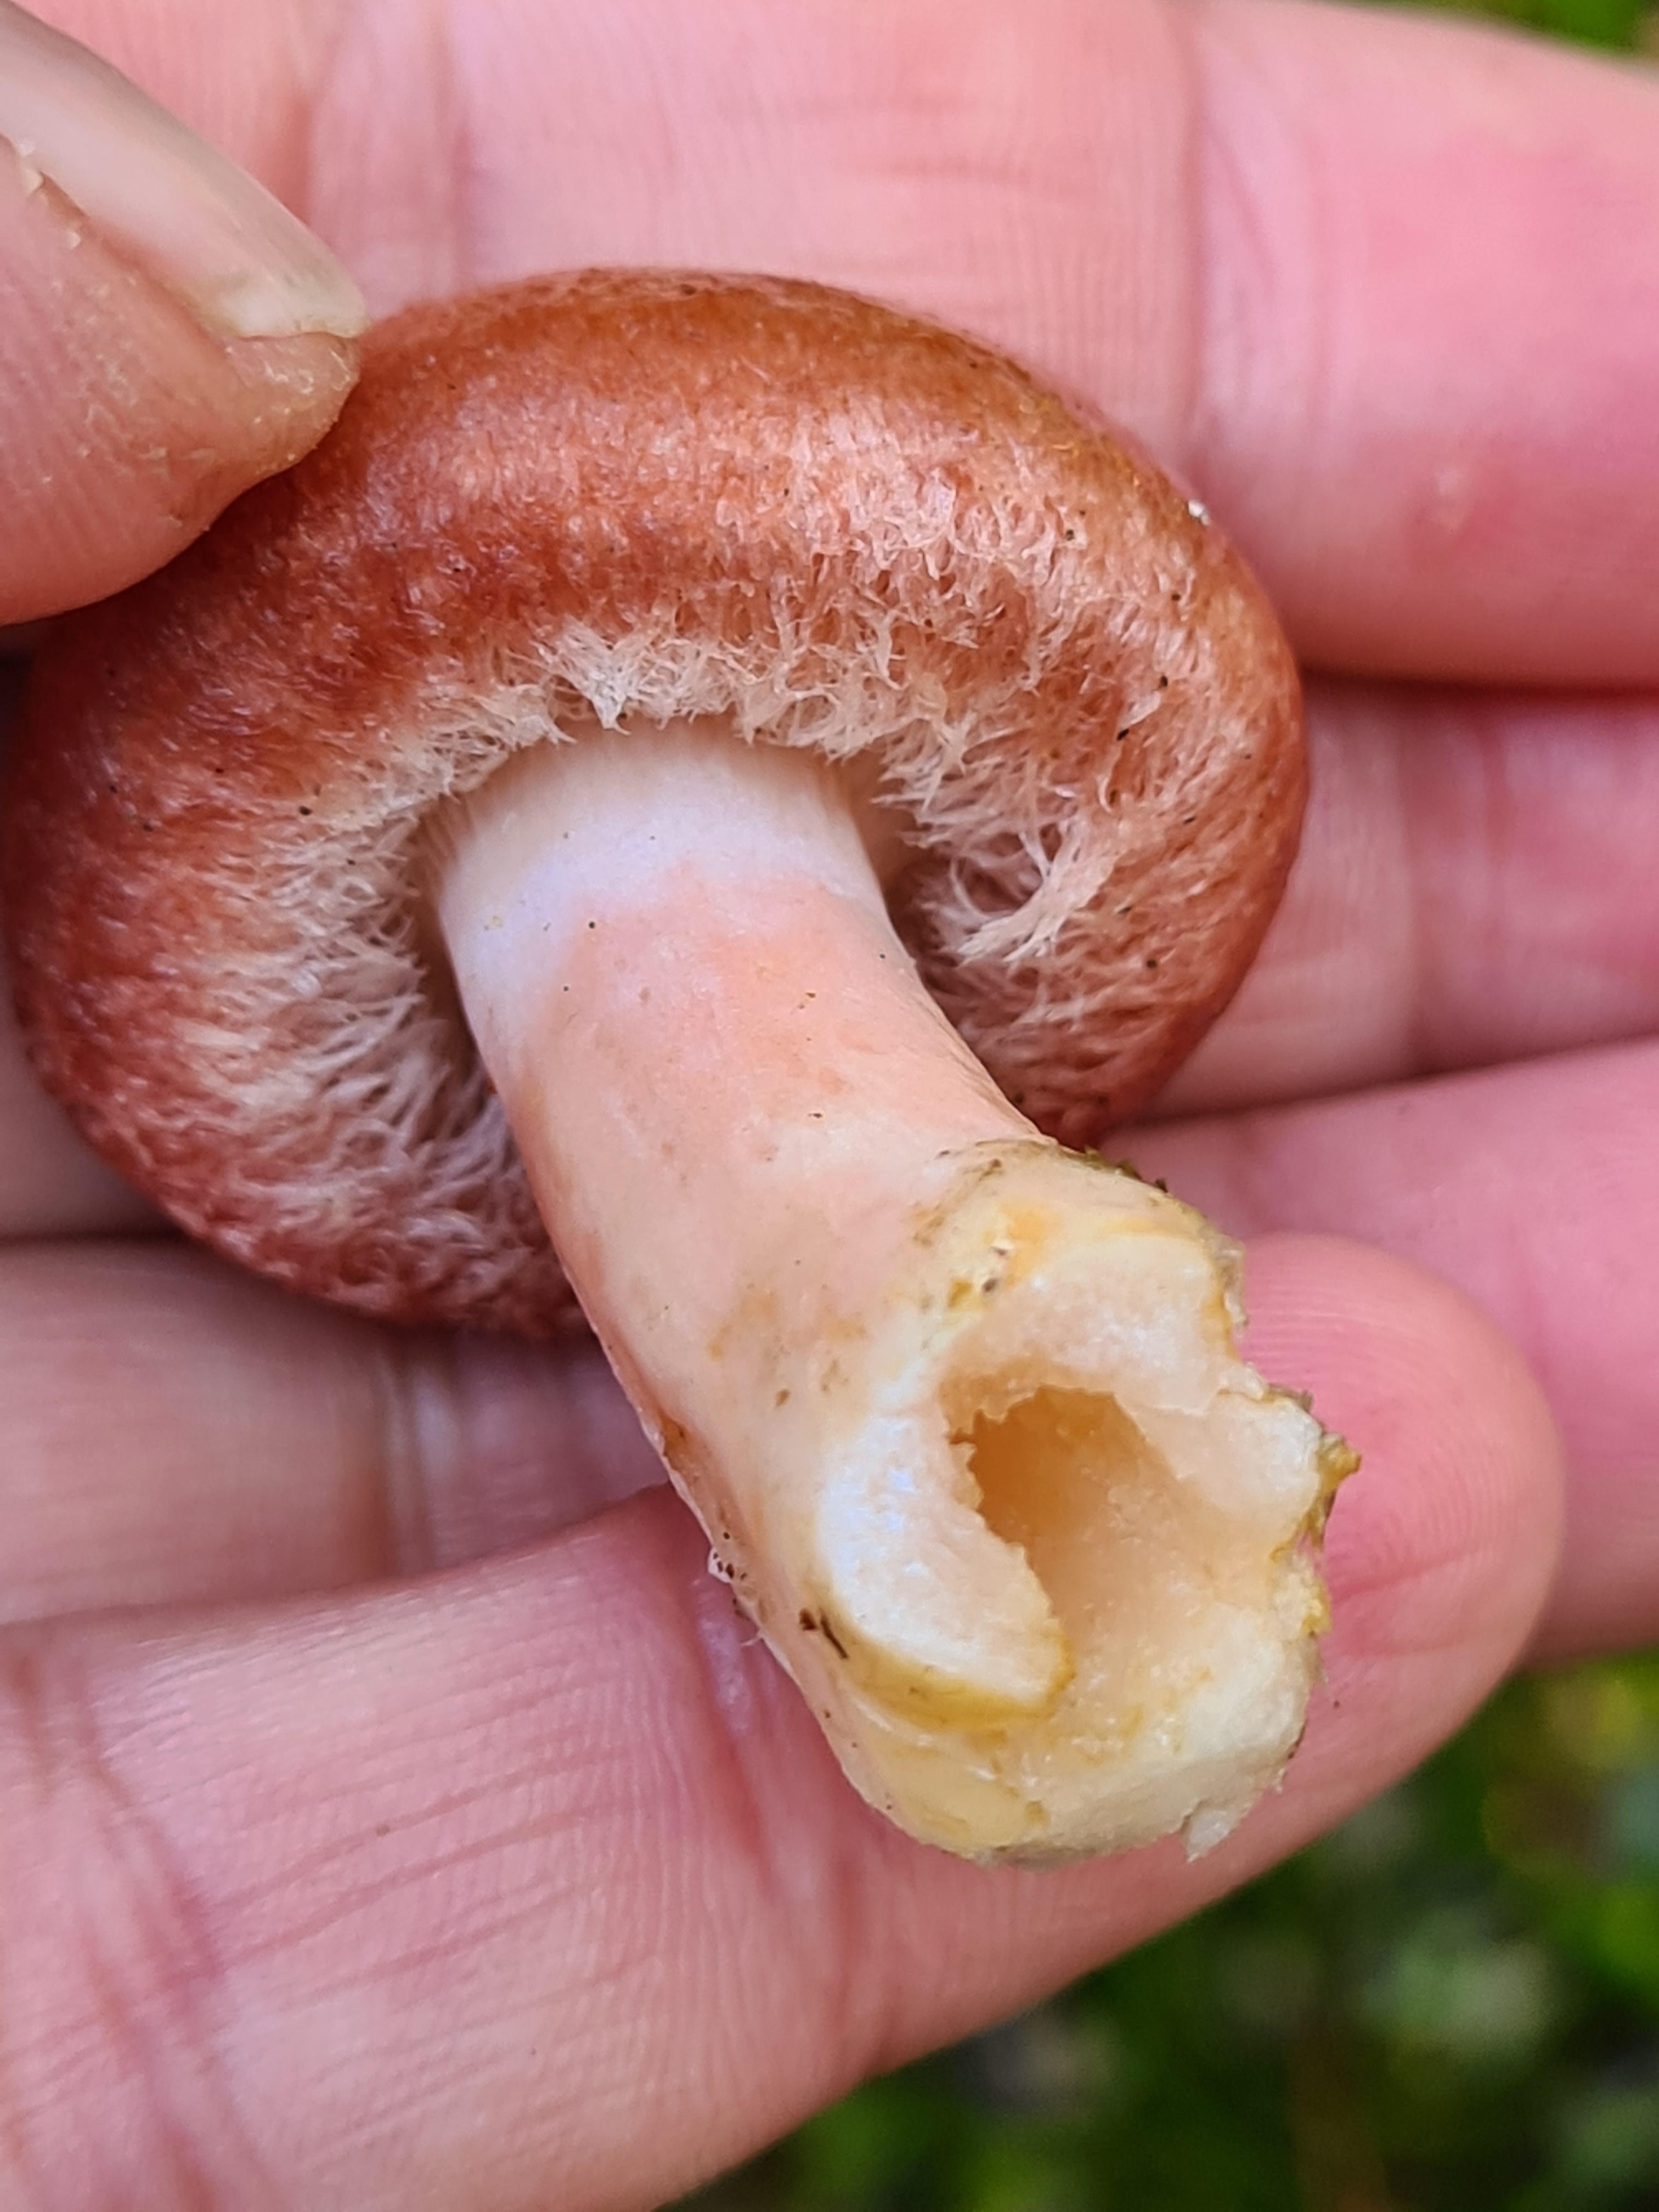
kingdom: Fungi
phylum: Basidiomycota
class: Agaricomycetes
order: Russulales
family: Russulaceae
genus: Lactarius
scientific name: Lactarius torminosus
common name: skægget mælkehat
